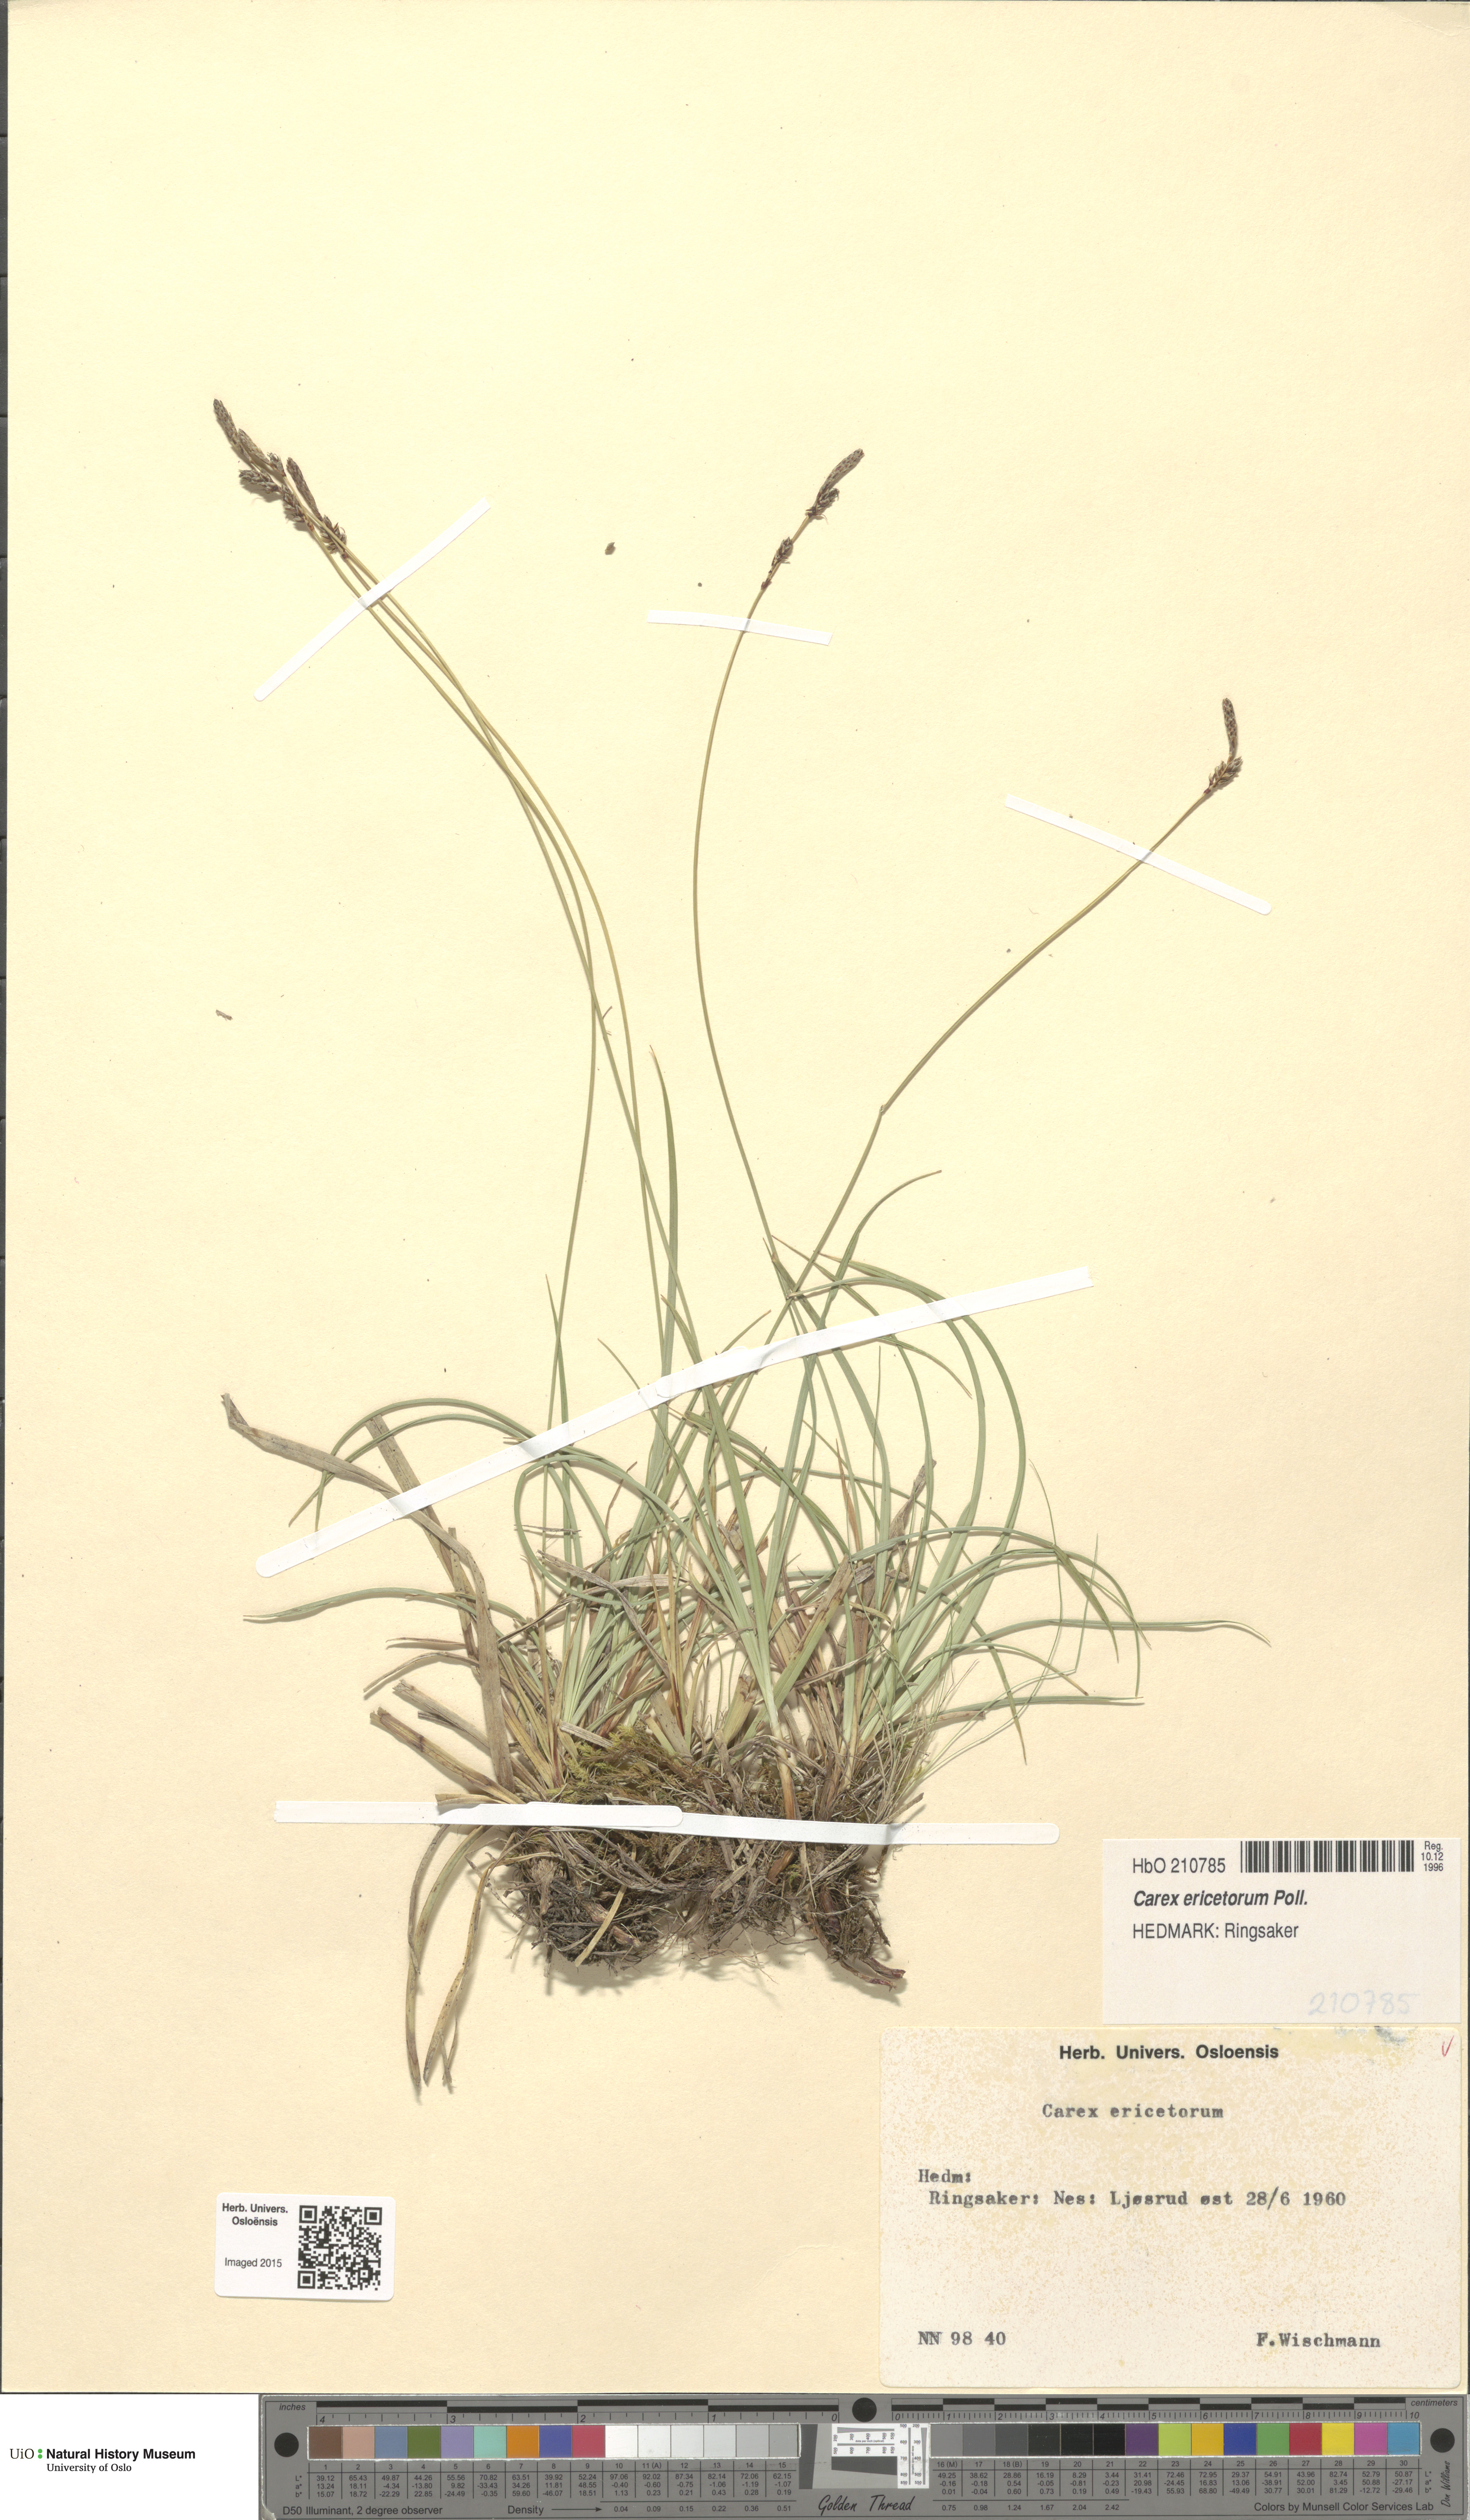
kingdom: Plantae
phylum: Tracheophyta
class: Liliopsida
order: Poales
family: Cyperaceae
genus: Carex
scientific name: Carex ericetorum
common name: Rare spring-sedge
